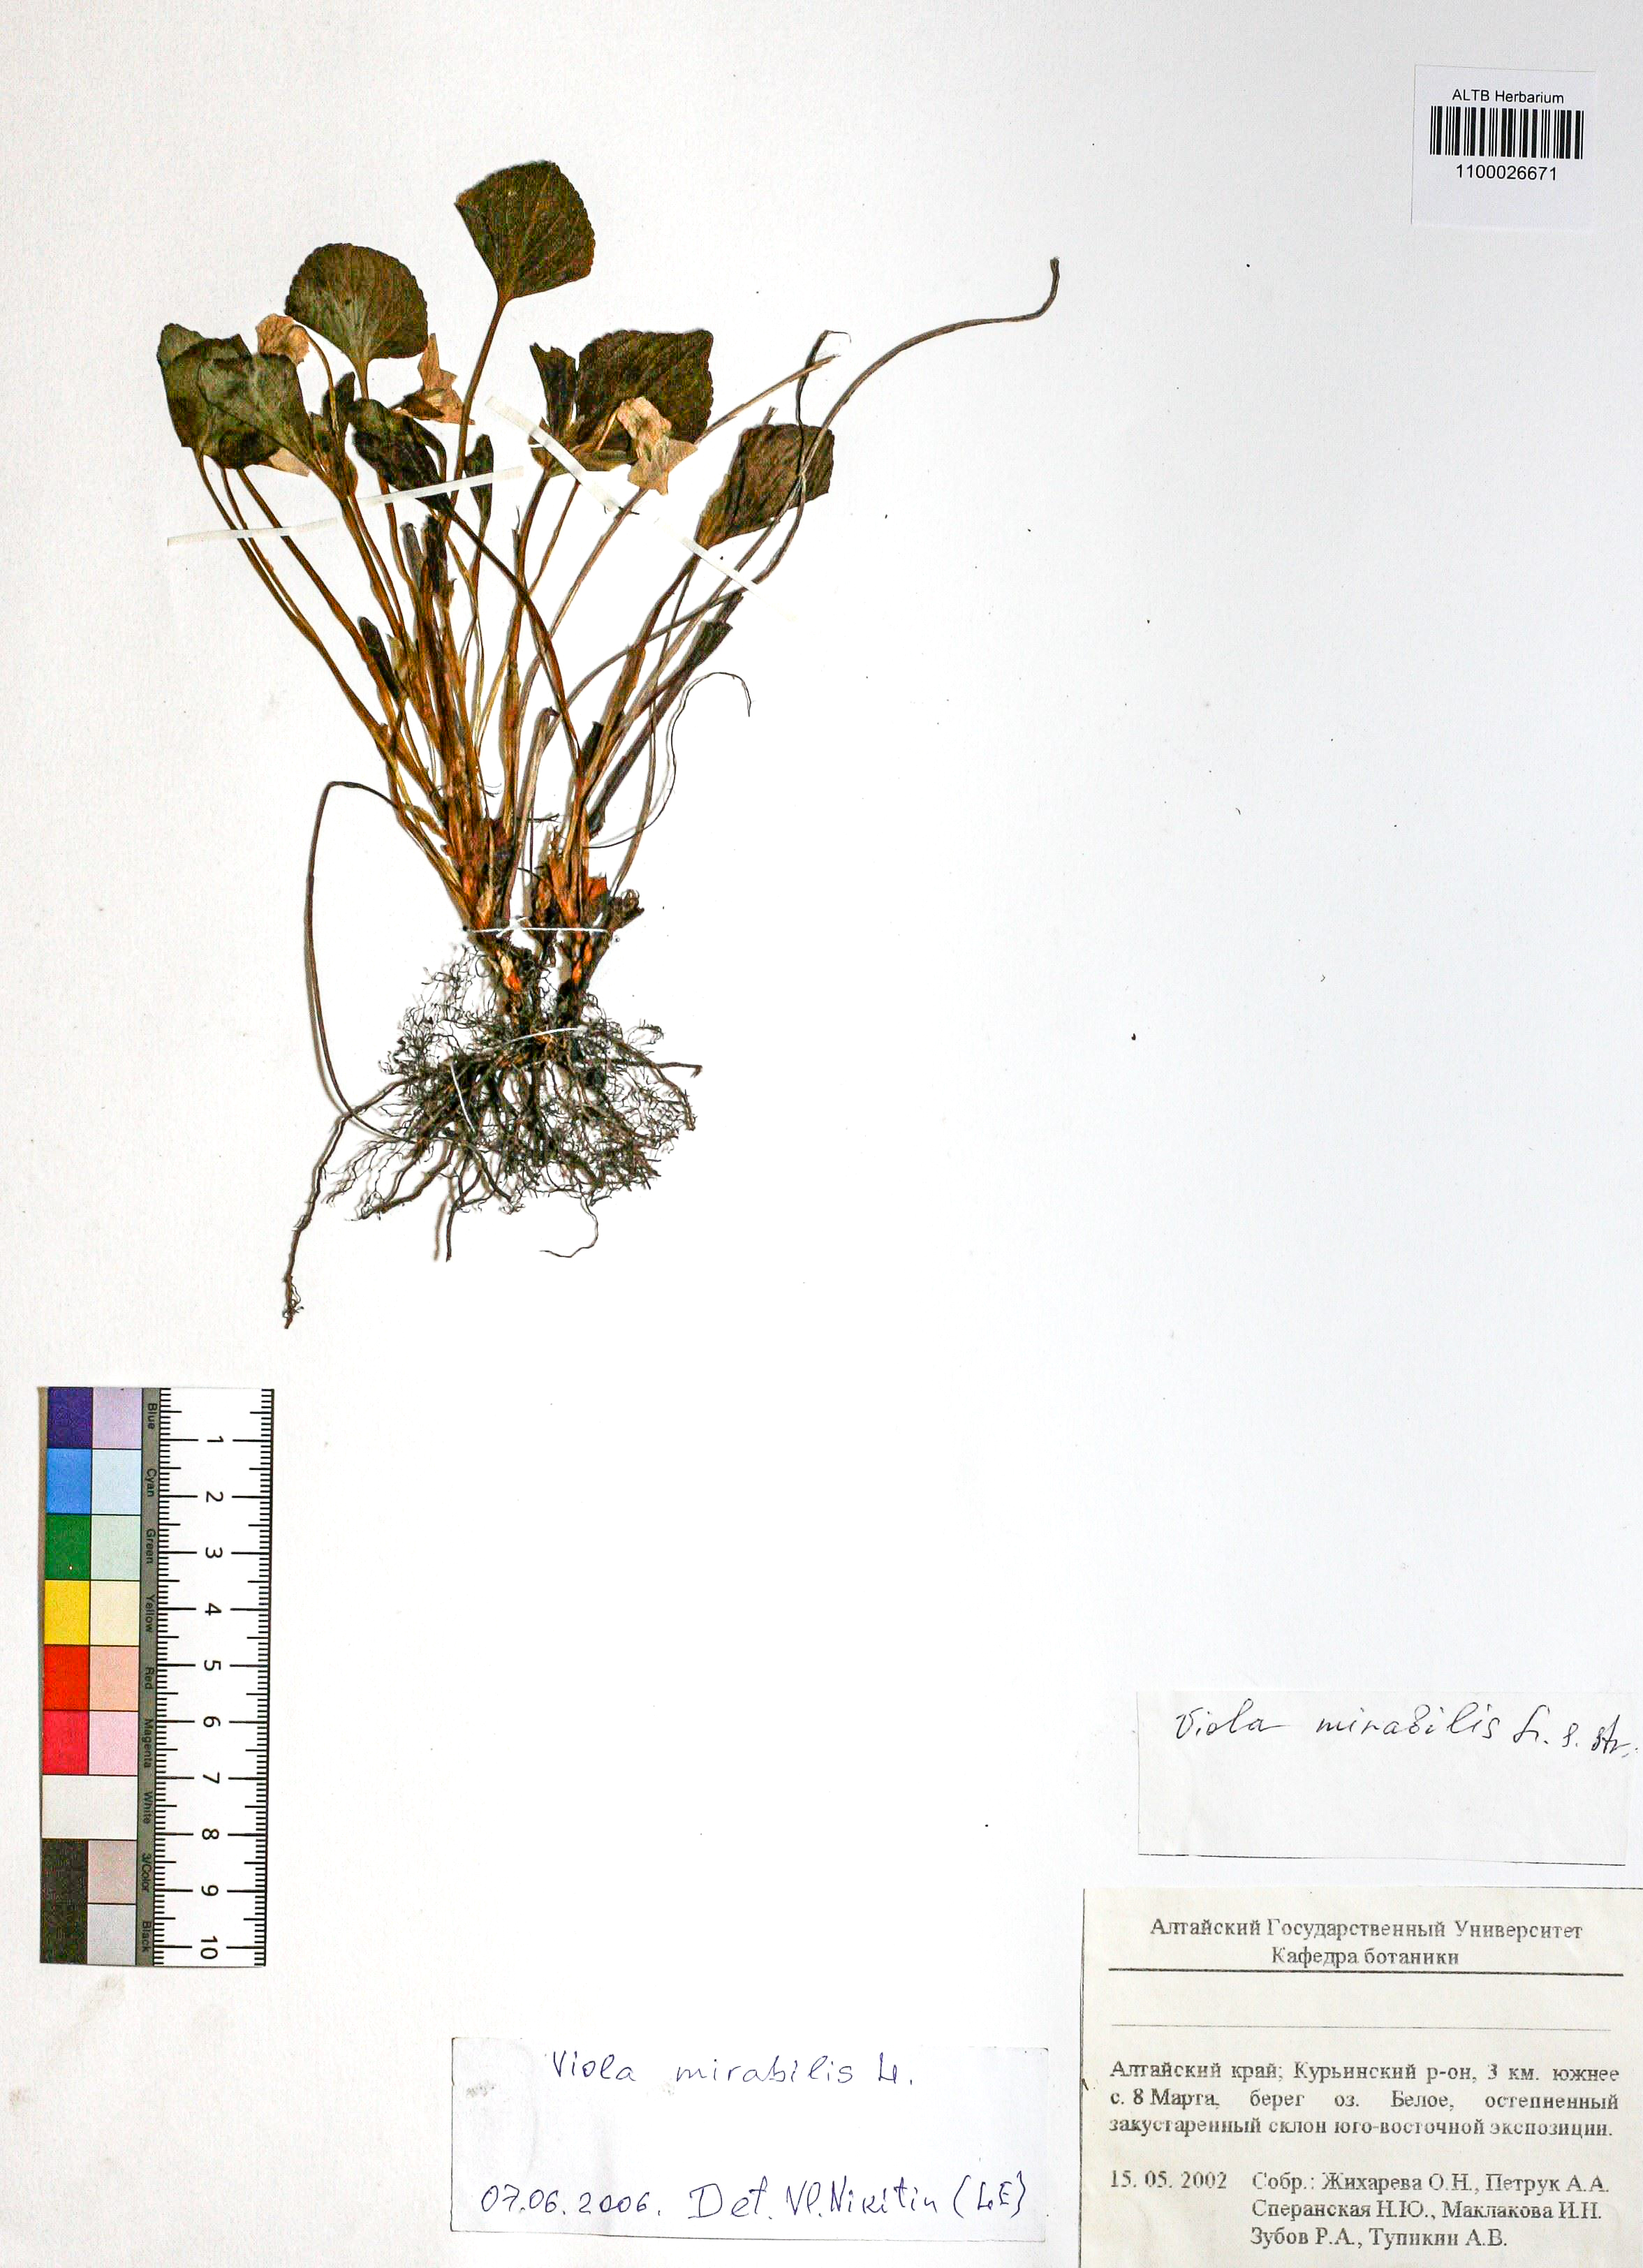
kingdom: Plantae
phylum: Tracheophyta
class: Magnoliopsida
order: Malpighiales
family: Violaceae
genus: Viola
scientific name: Viola mirabilis
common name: Wonder violet
